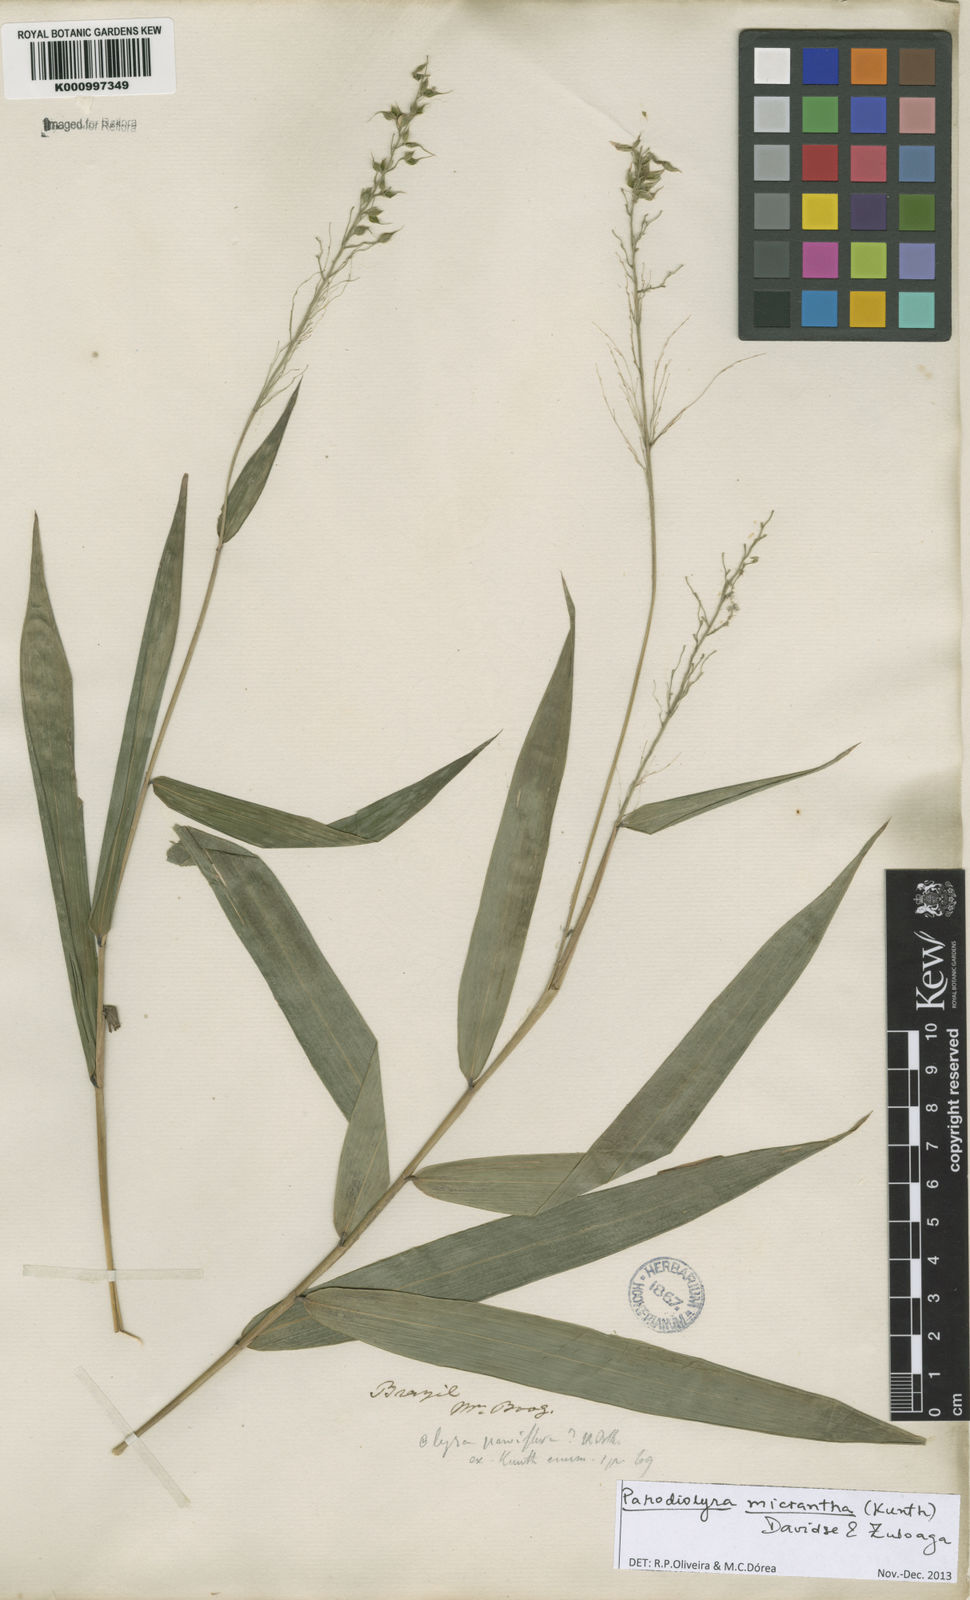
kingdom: Plantae
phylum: Tracheophyta
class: Liliopsida
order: Poales
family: Poaceae
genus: Taquara
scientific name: Taquara micrantha
